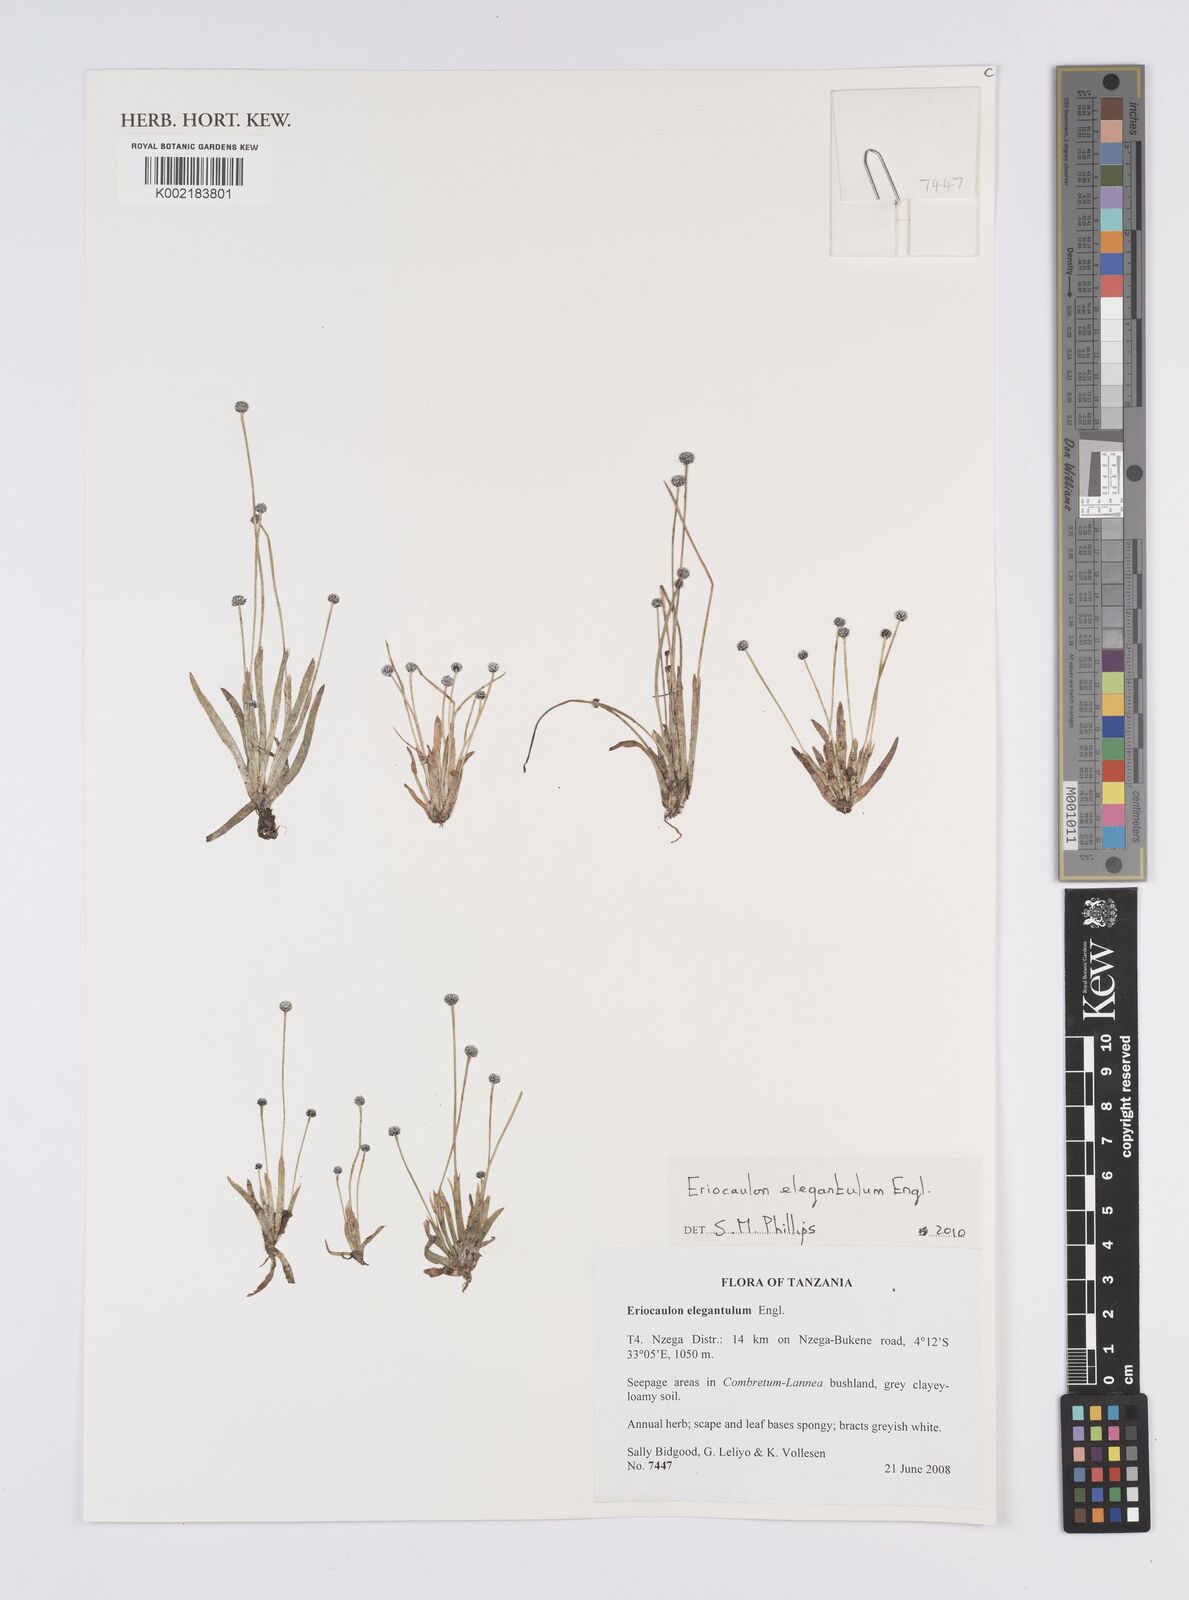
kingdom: Plantae
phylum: Tracheophyta
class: Liliopsida
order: Poales
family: Eriocaulaceae
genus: Eriocaulon
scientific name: Eriocaulon elegantulum
